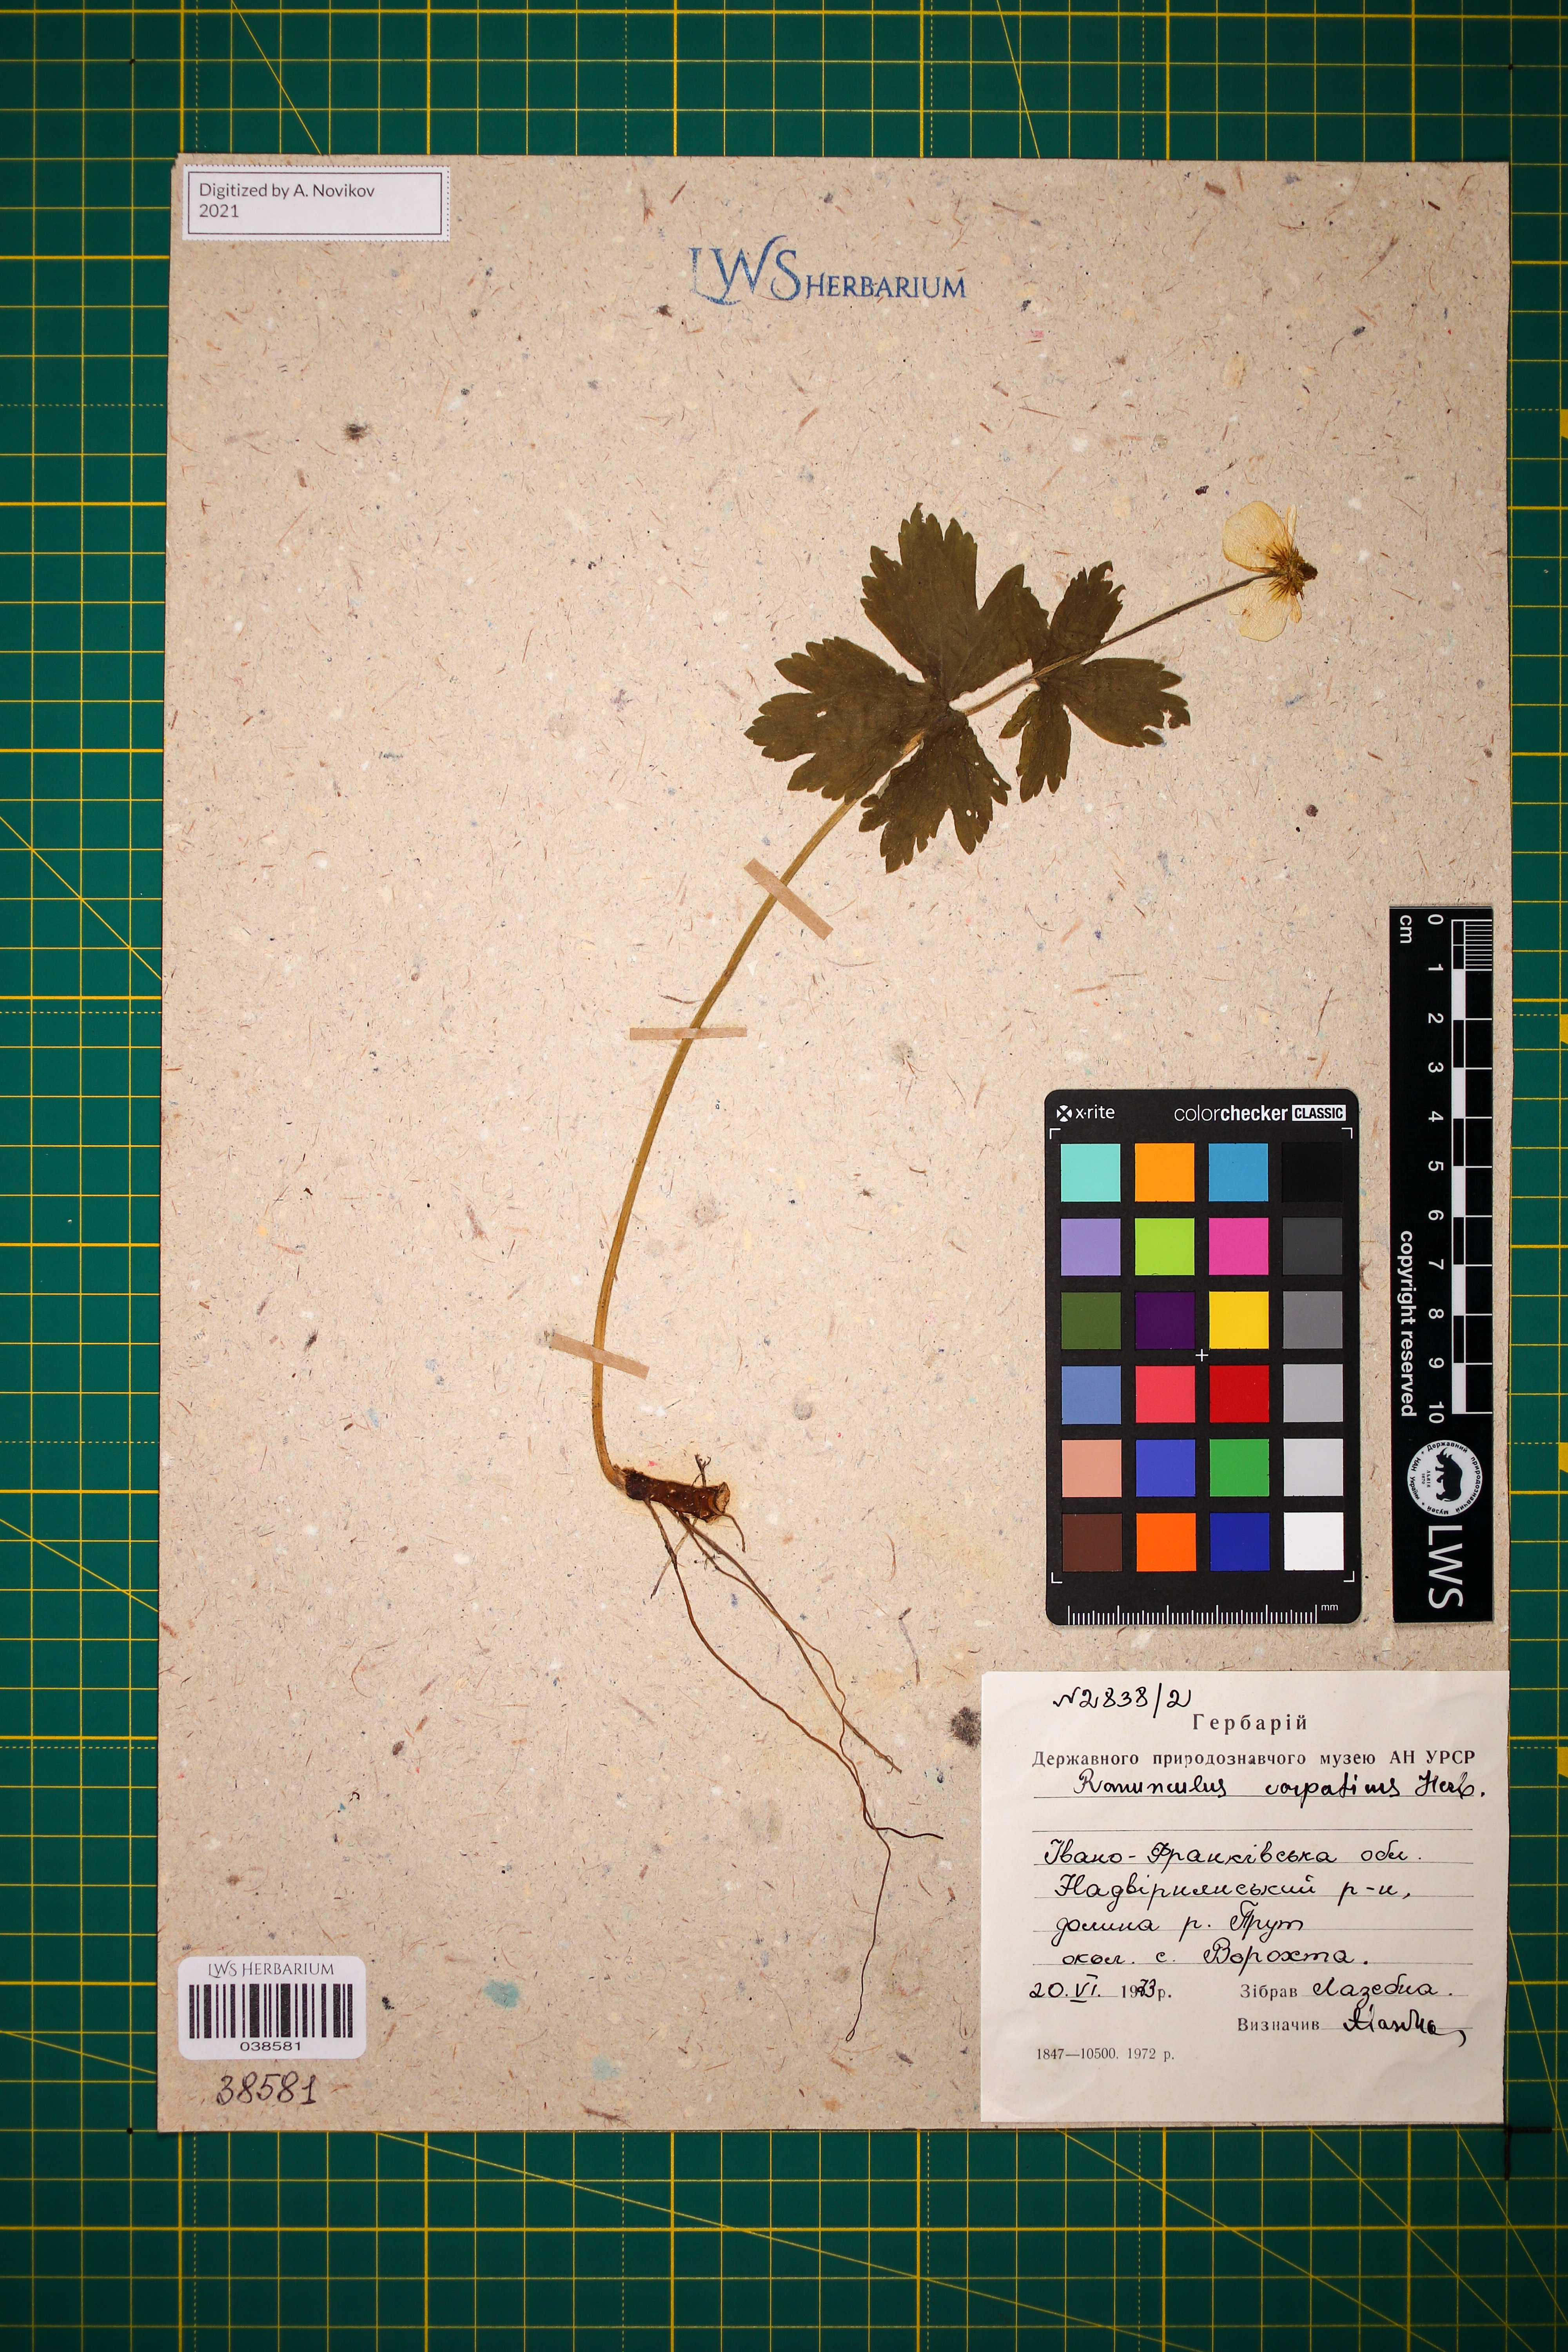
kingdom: Plantae
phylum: Tracheophyta
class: Magnoliopsida
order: Ranunculales
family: Ranunculaceae
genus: Ranunculus
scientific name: Ranunculus carpaticus
